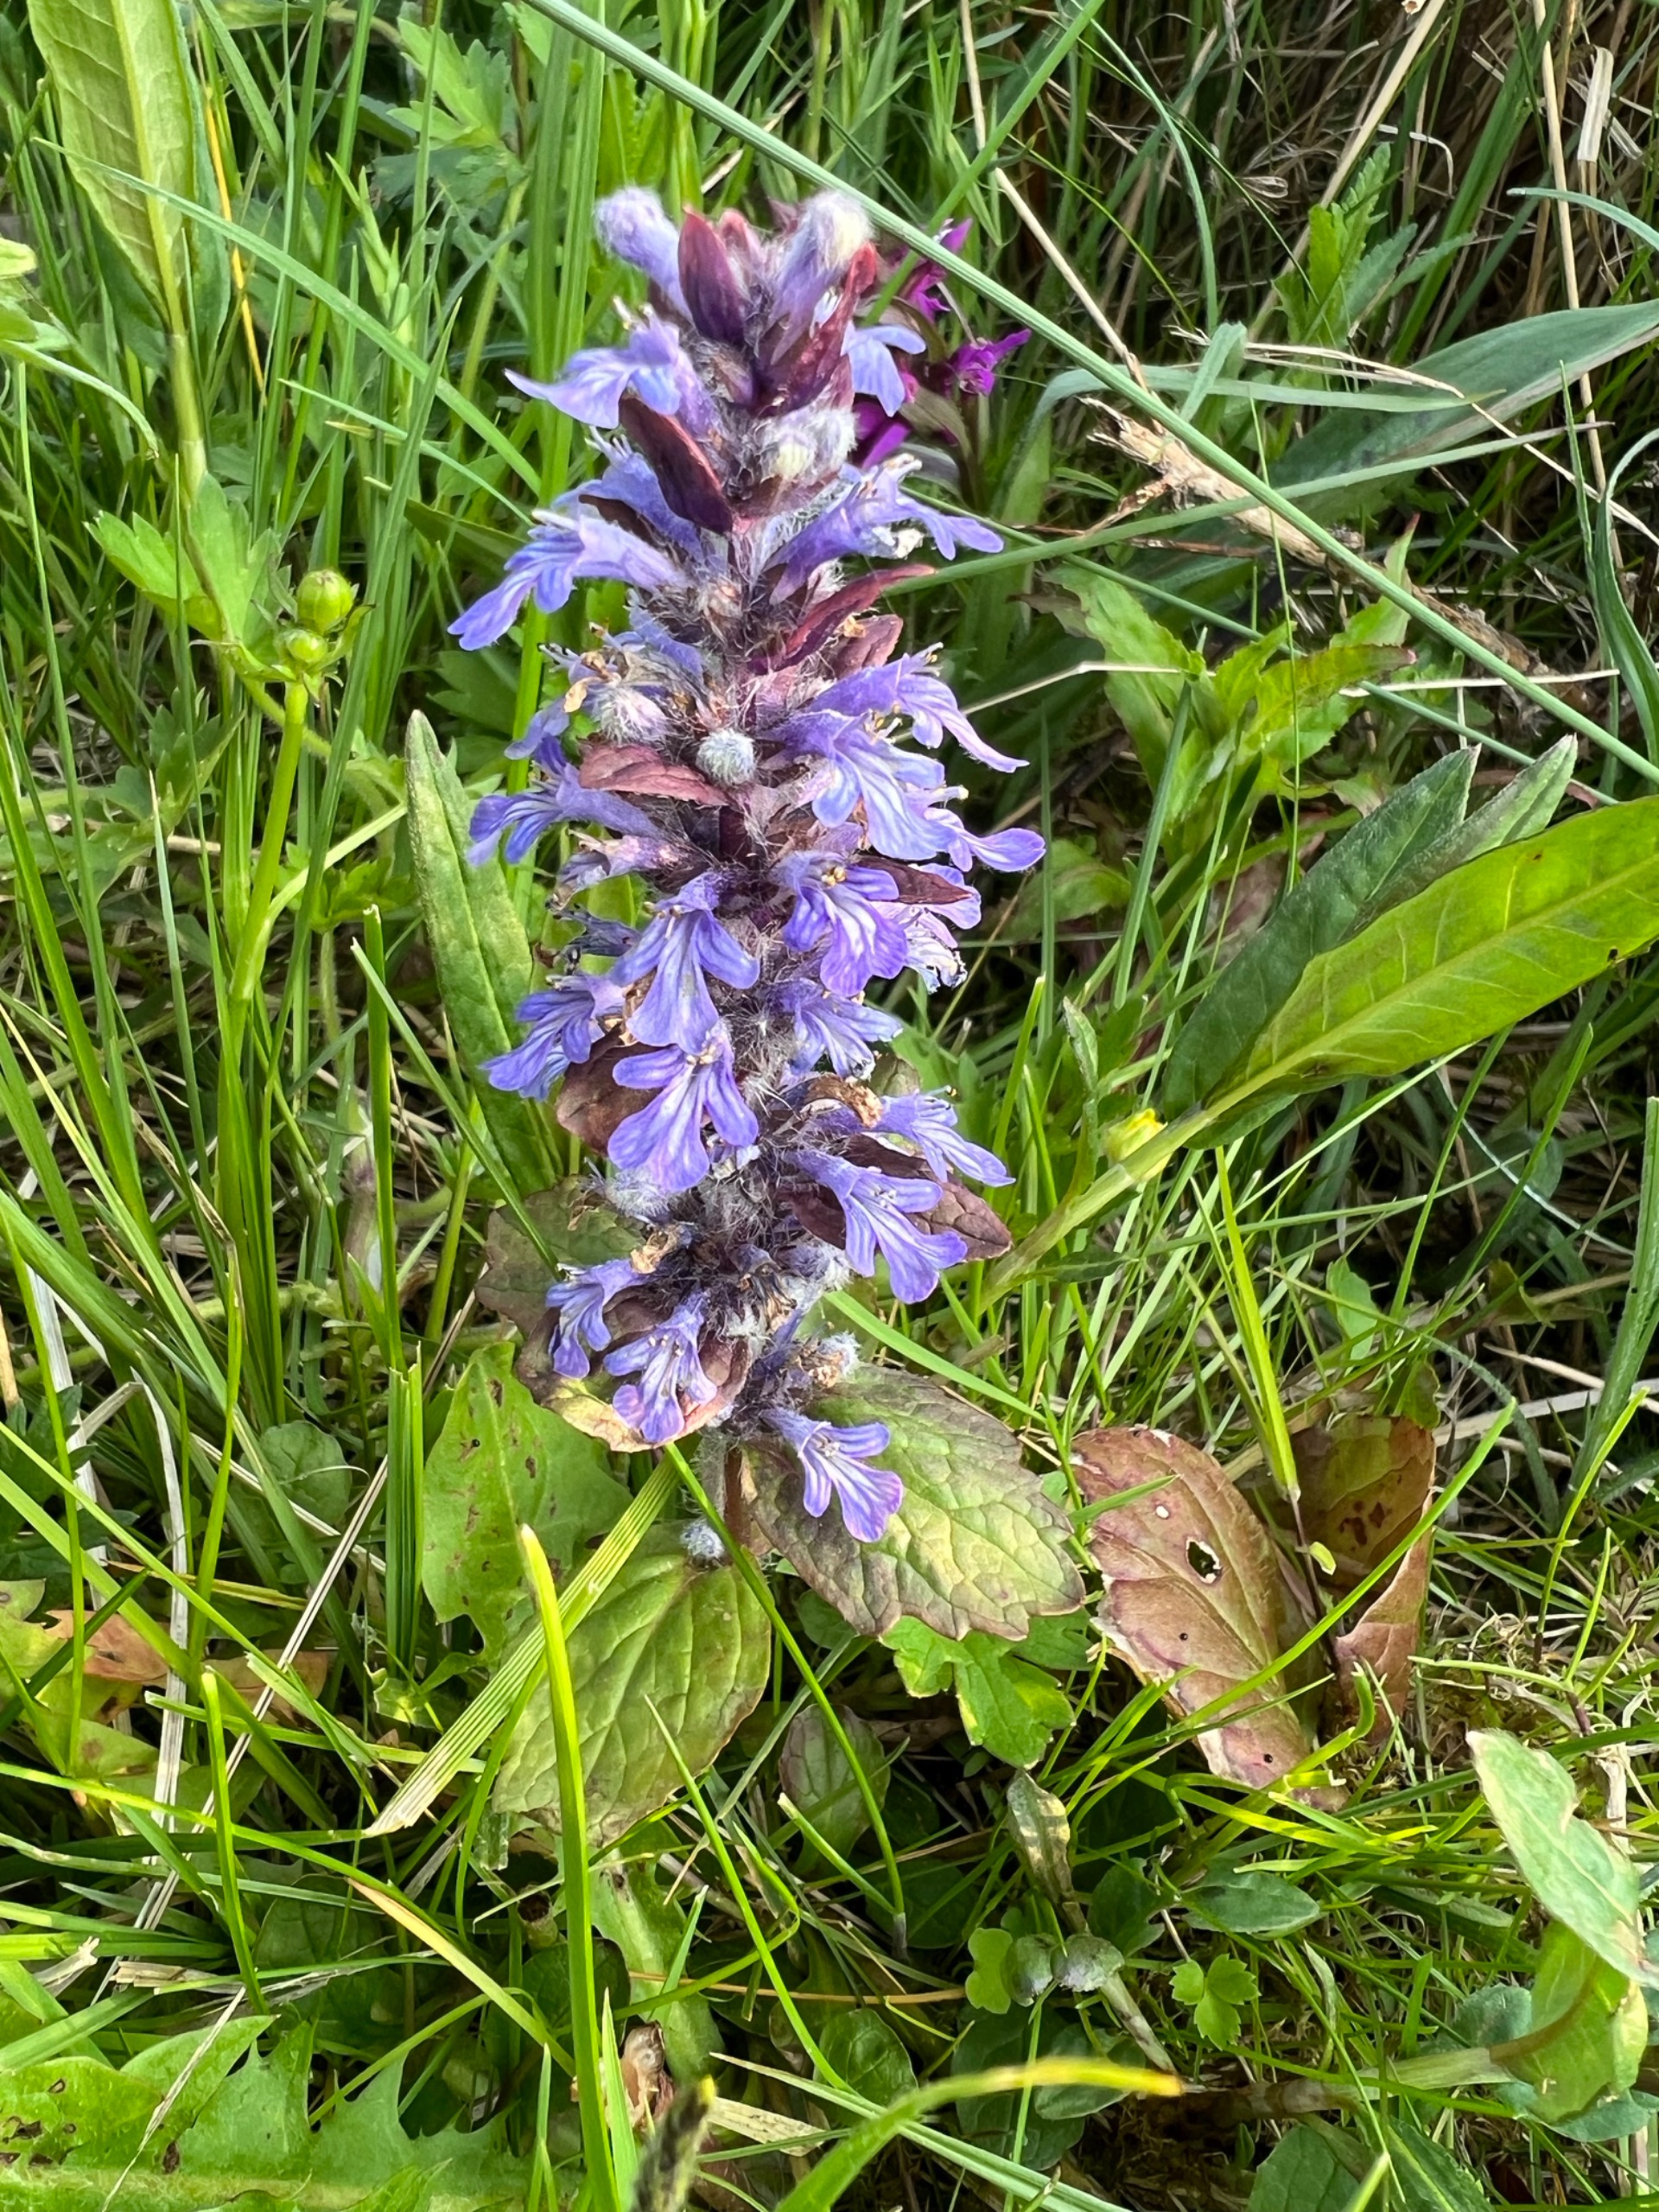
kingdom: Plantae
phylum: Tracheophyta
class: Magnoliopsida
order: Lamiales
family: Lamiaceae
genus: Ajuga
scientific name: Ajuga reptans
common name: Krybende læbeløs
